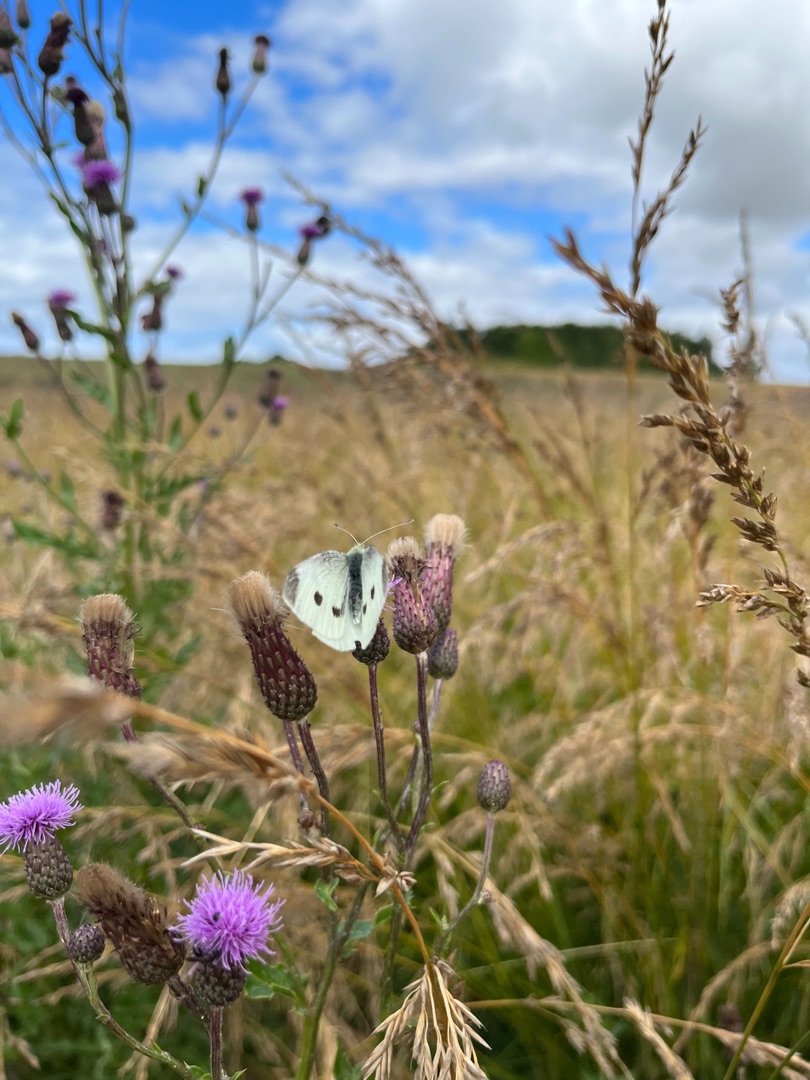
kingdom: Animalia
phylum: Arthropoda
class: Insecta
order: Lepidoptera
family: Pieridae
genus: Pieris
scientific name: Pieris rapae
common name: Lille kålsommerfugl
